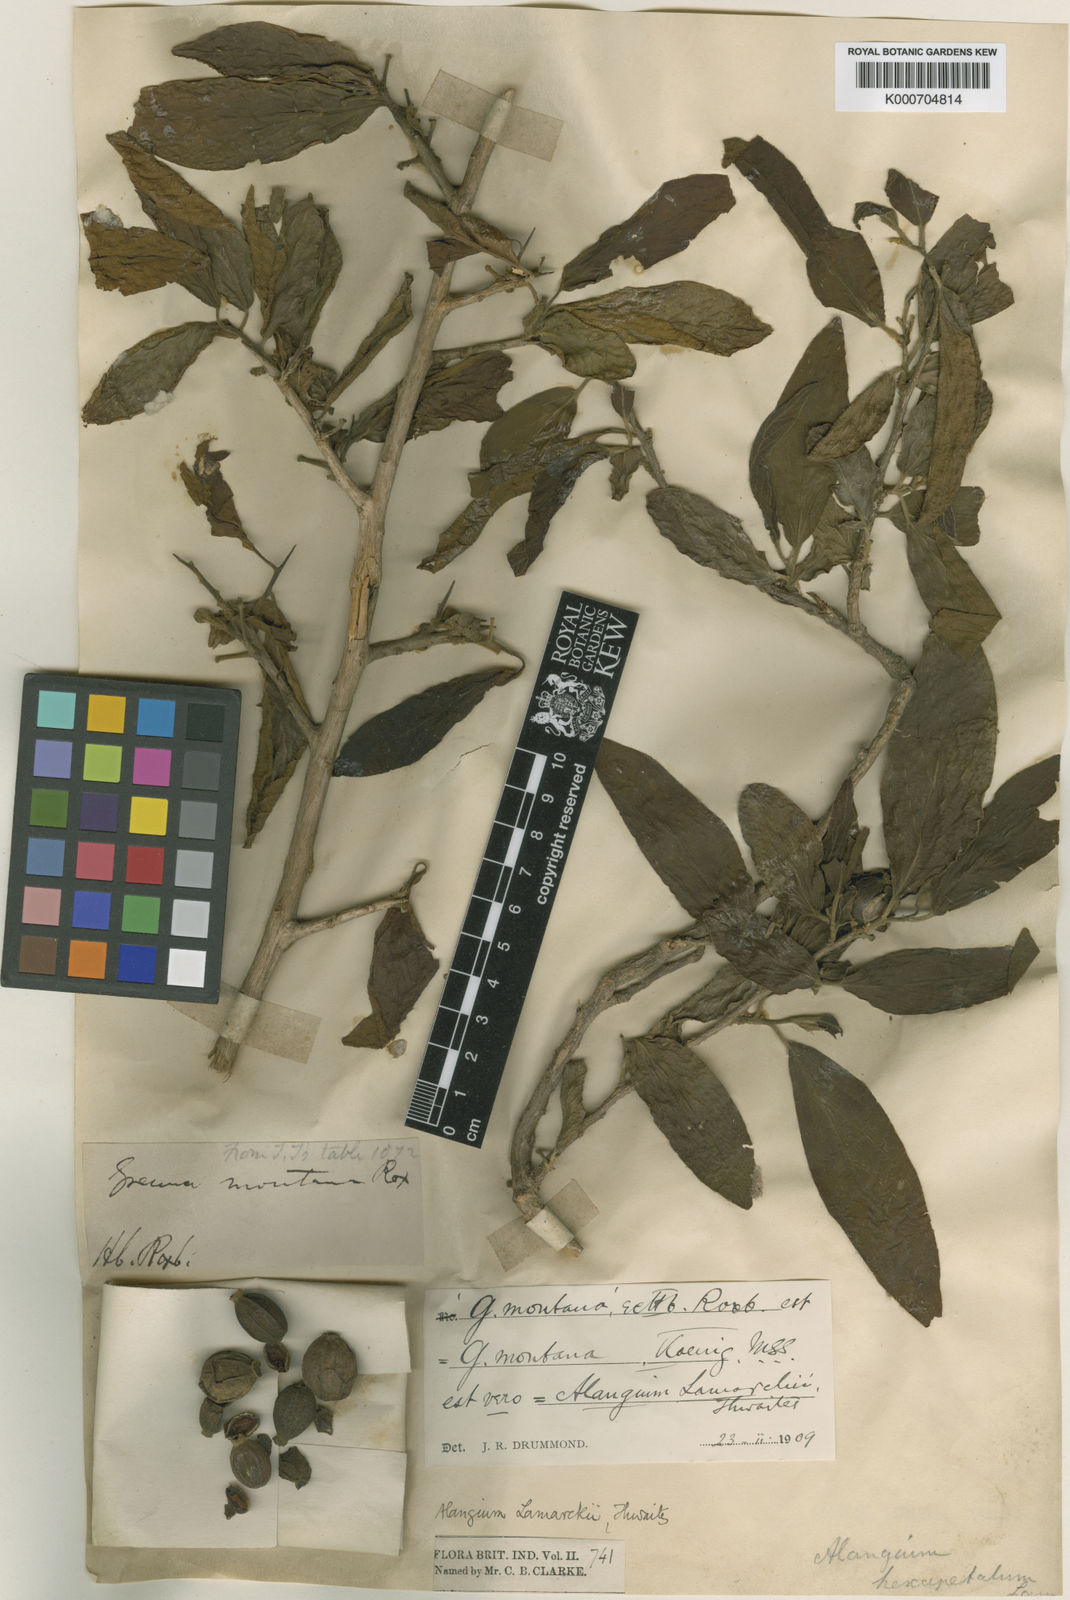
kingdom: Plantae
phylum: Tracheophyta
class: Magnoliopsida
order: Cornales
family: Cornaceae
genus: Alangium
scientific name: Alangium salviifolium
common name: Sage-leaf alangium
